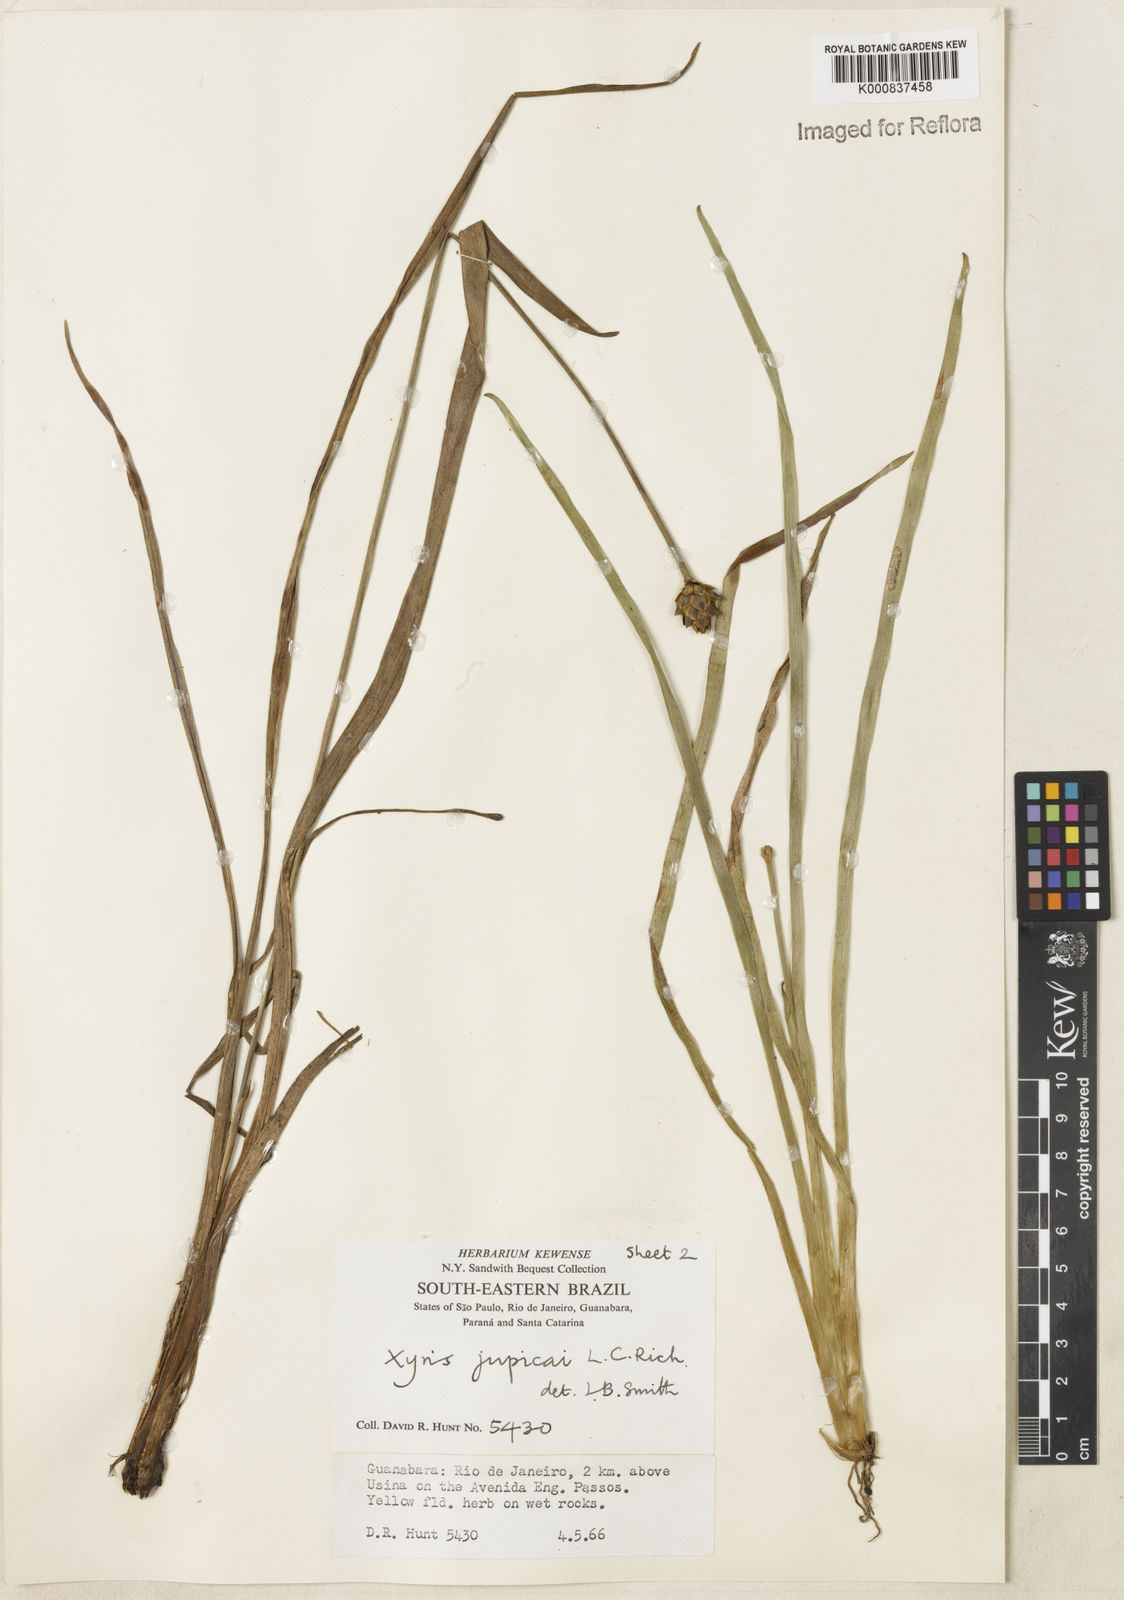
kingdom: Plantae
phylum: Tracheophyta
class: Liliopsida
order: Poales
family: Xyridaceae
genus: Xyris
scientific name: Xyris jupicai
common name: Richard's yelloweyed grass
